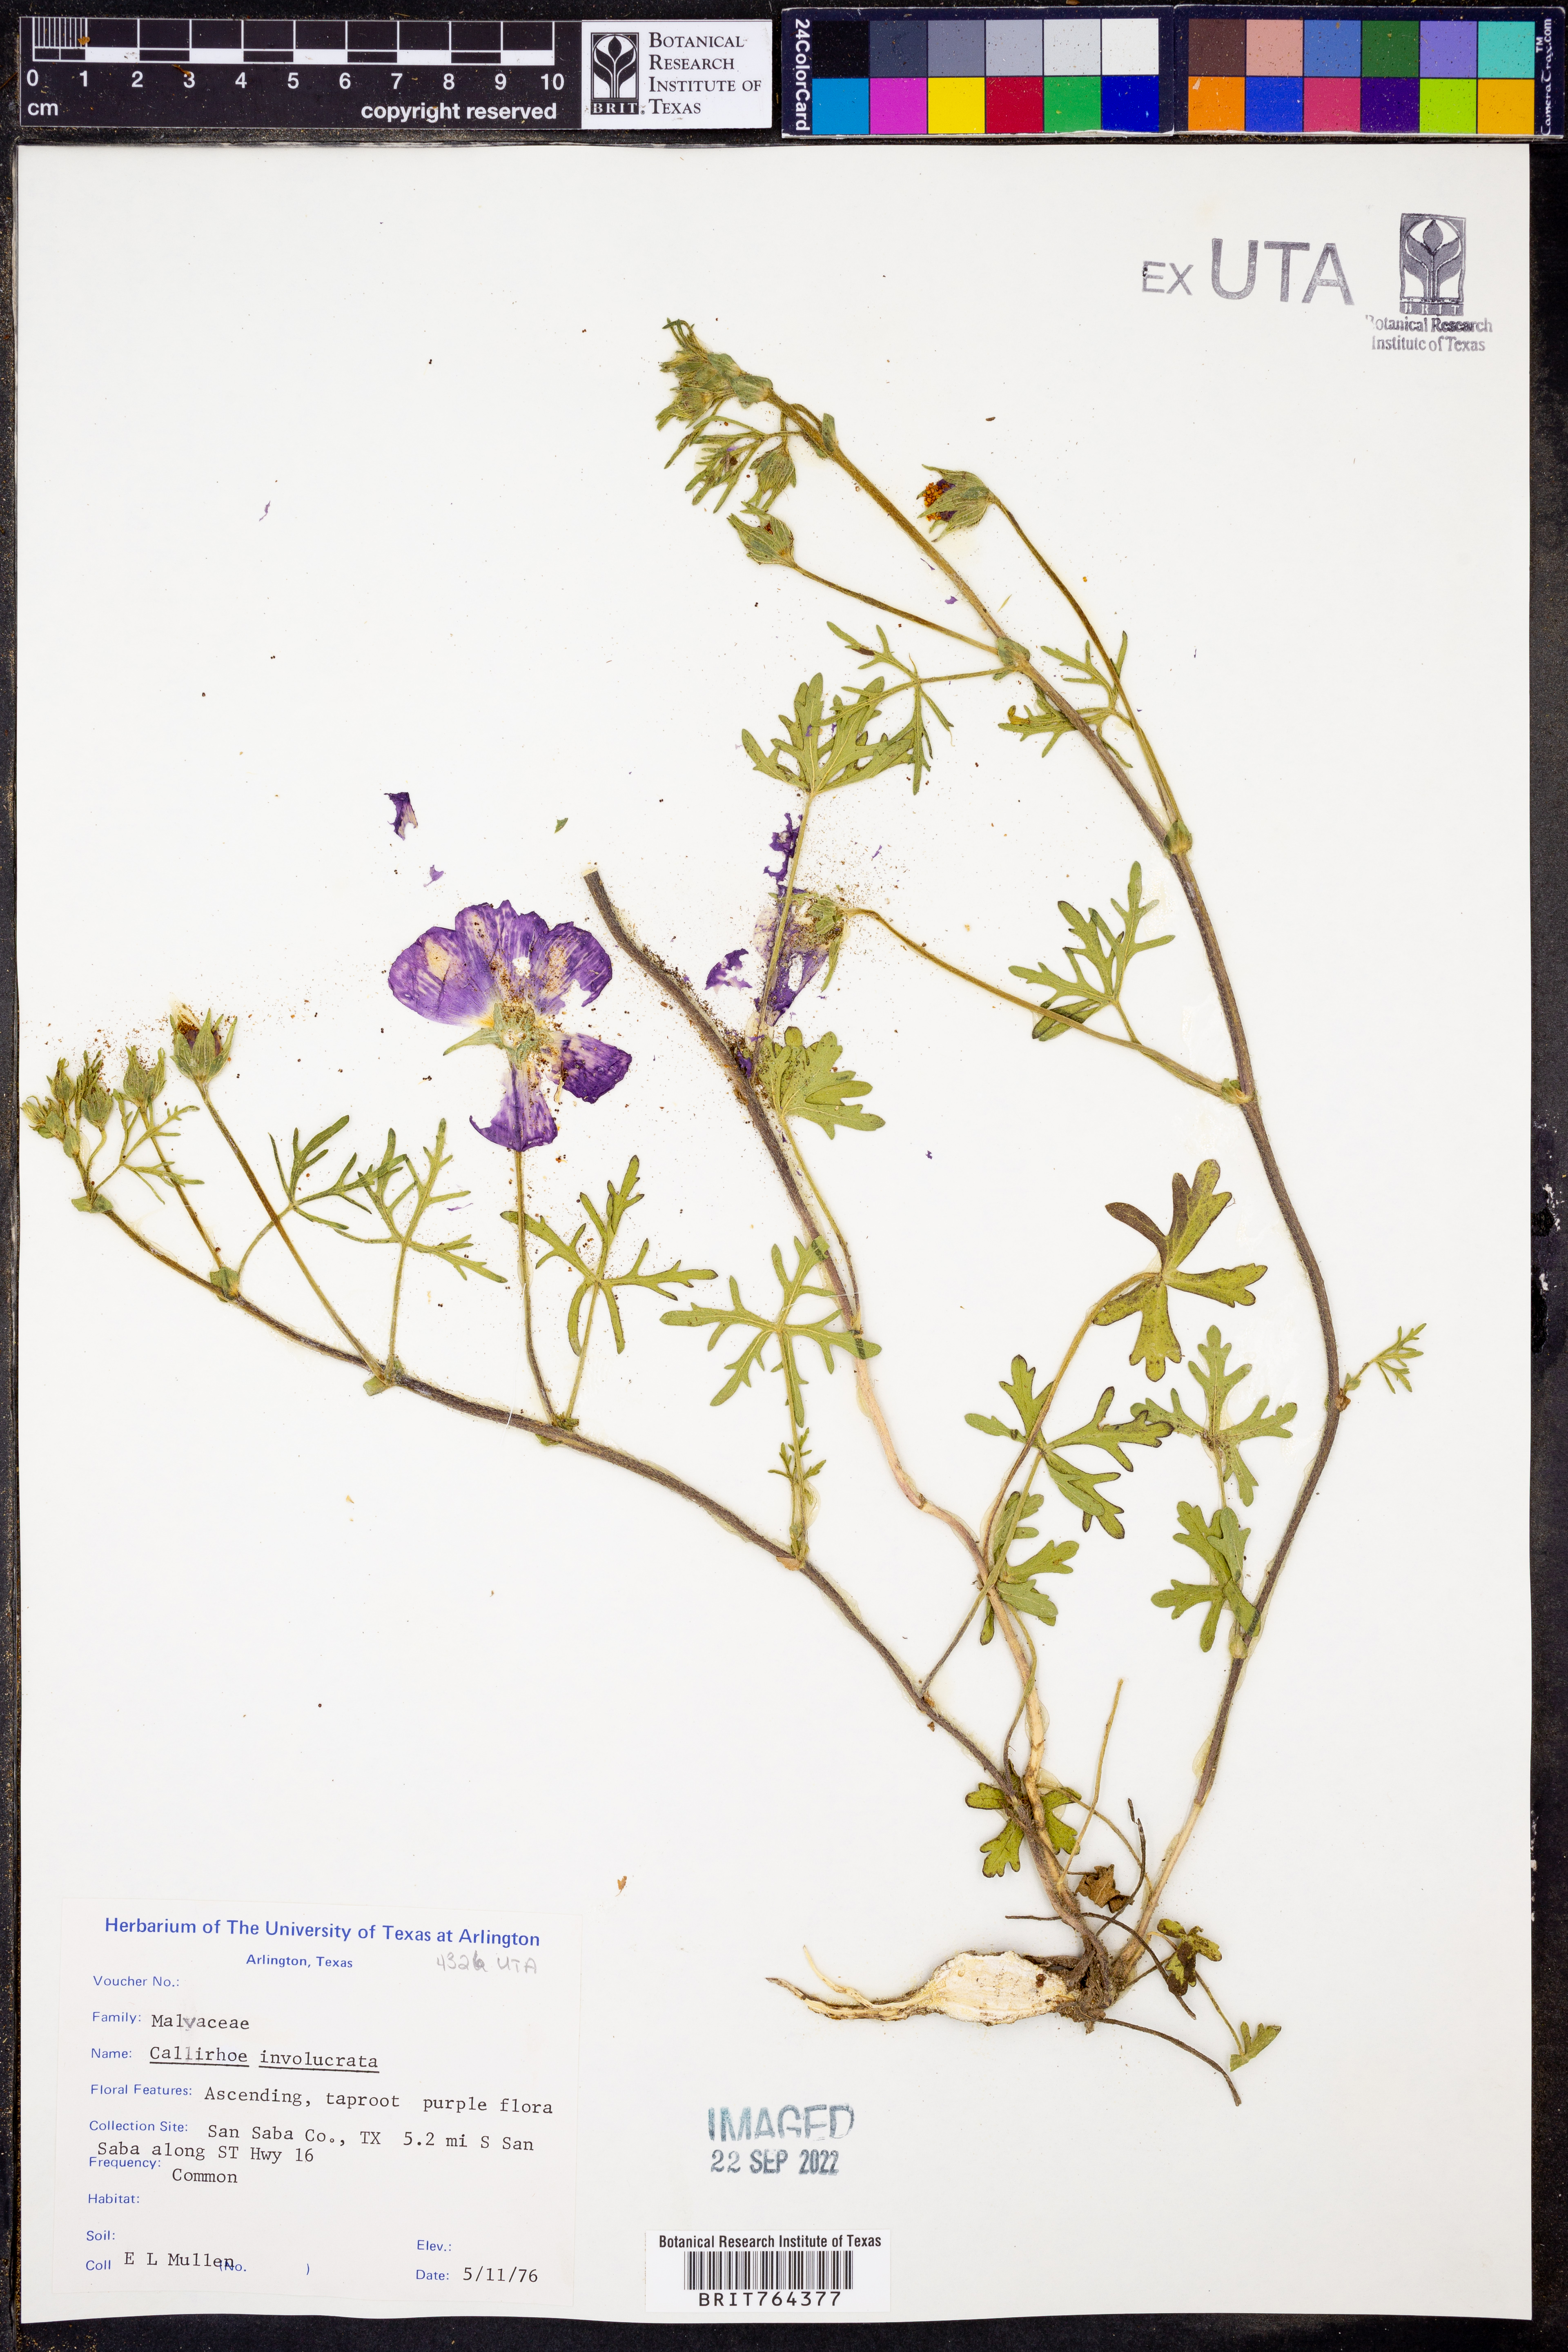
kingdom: Plantae
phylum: Tracheophyta
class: Magnoliopsida
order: Malvales
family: Malvaceae
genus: Callirhoe
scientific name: Callirhoe involucrata
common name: Purple poppy-mallow
